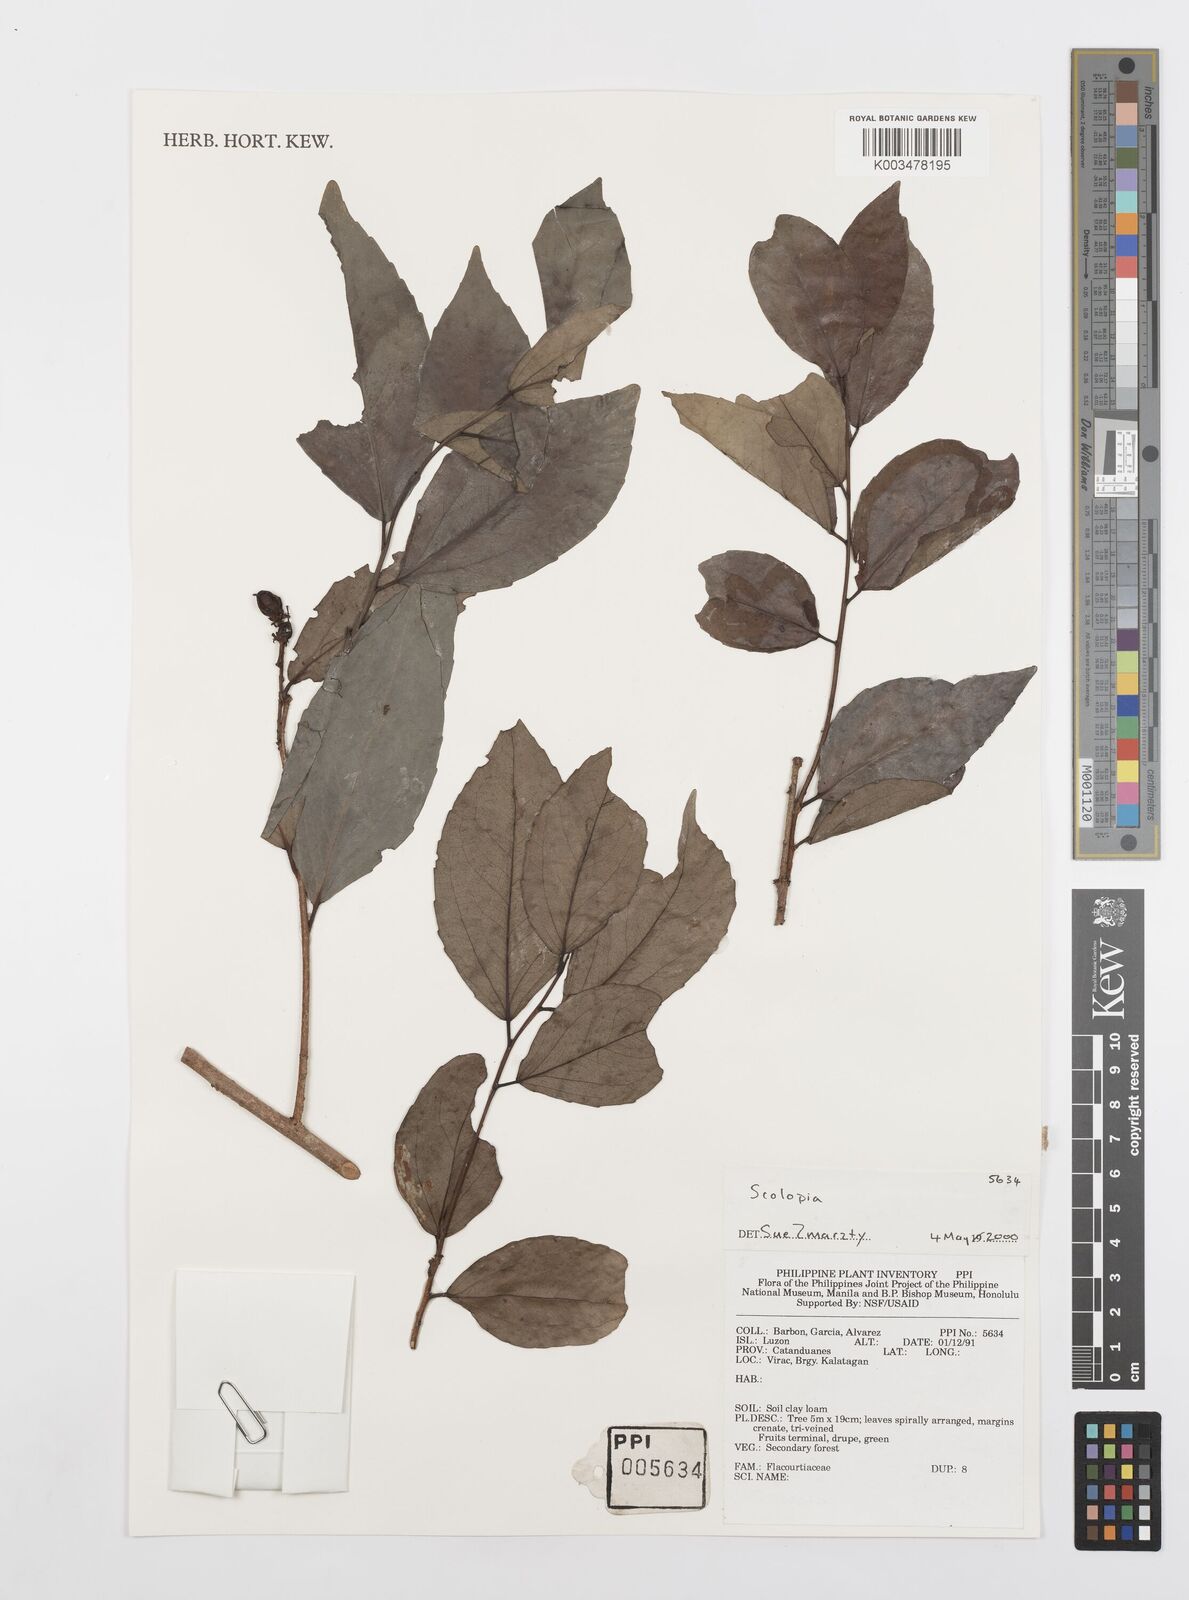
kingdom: Plantae
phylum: Tracheophyta
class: Magnoliopsida
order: Malpighiales
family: Salicaceae
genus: Scolopia
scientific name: Scolopia
